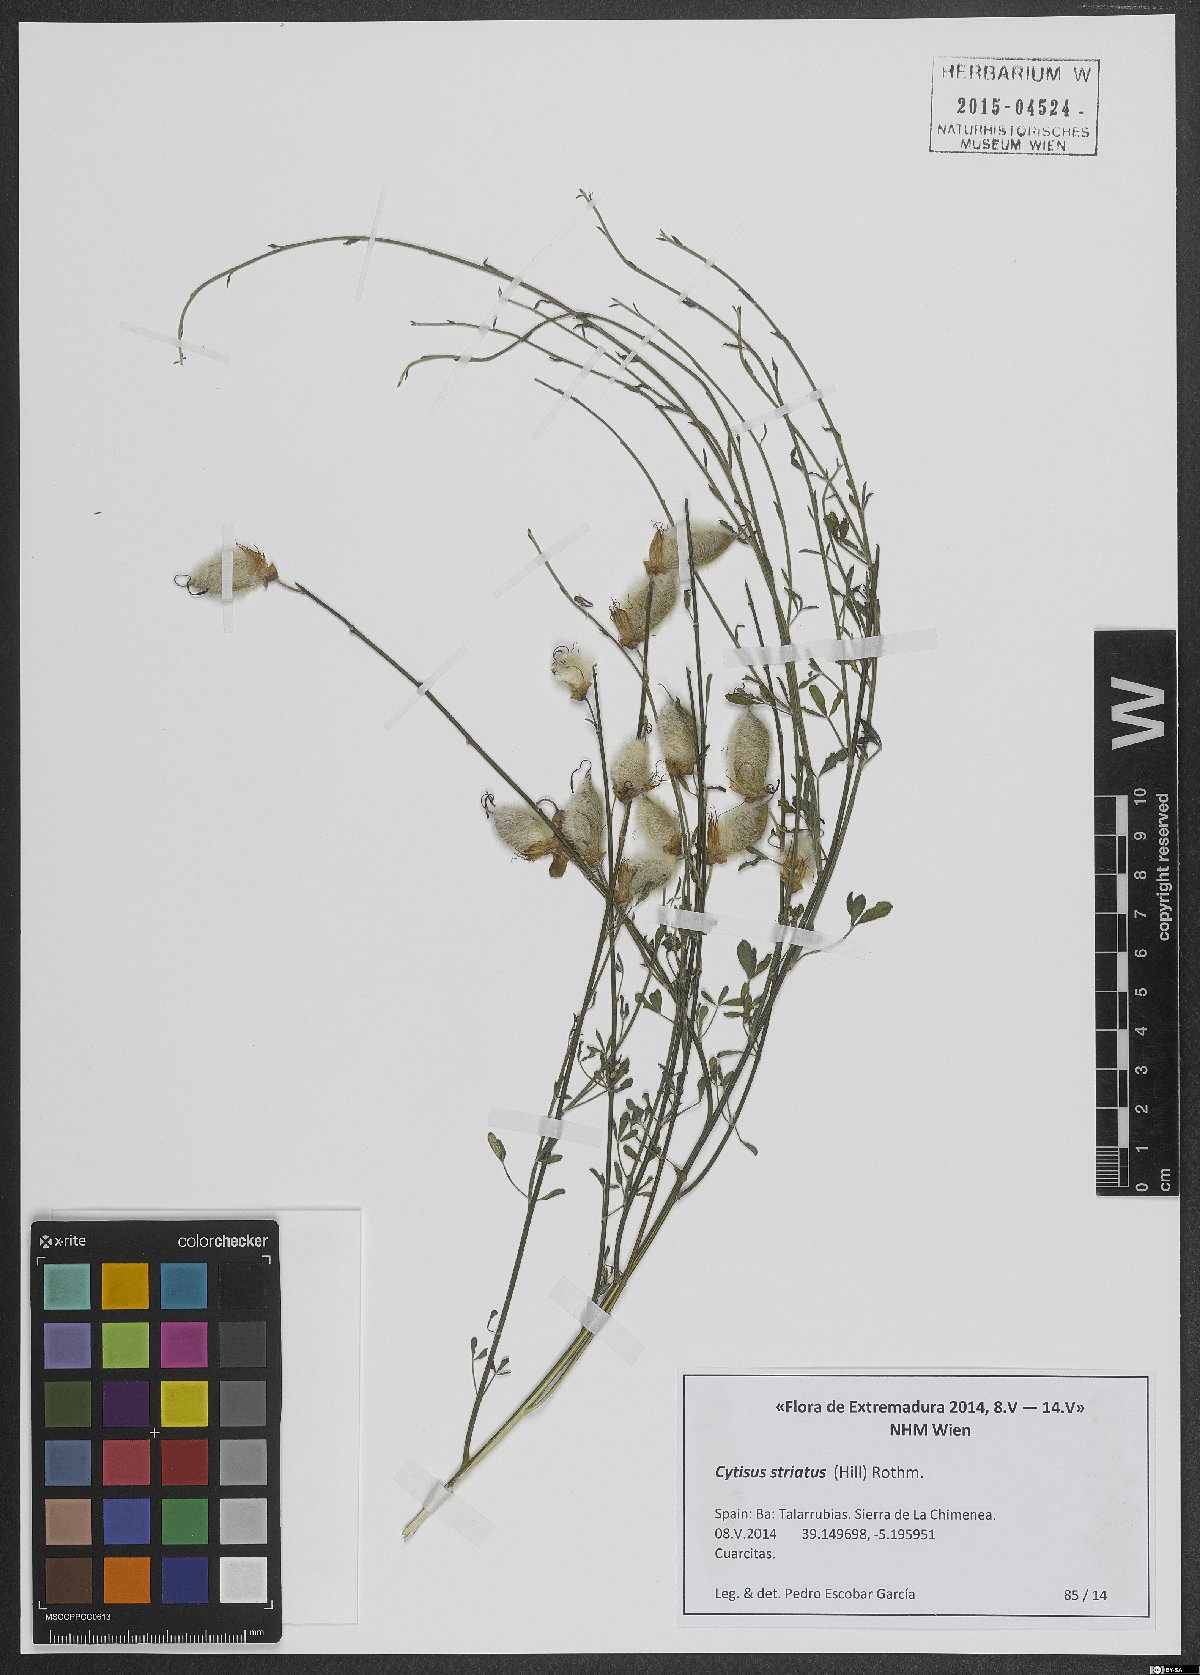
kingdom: Plantae
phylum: Tracheophyta
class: Magnoliopsida
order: Fabales
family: Fabaceae
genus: Cytisus
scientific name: Cytisus striatus
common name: Hairy-fruited broom
